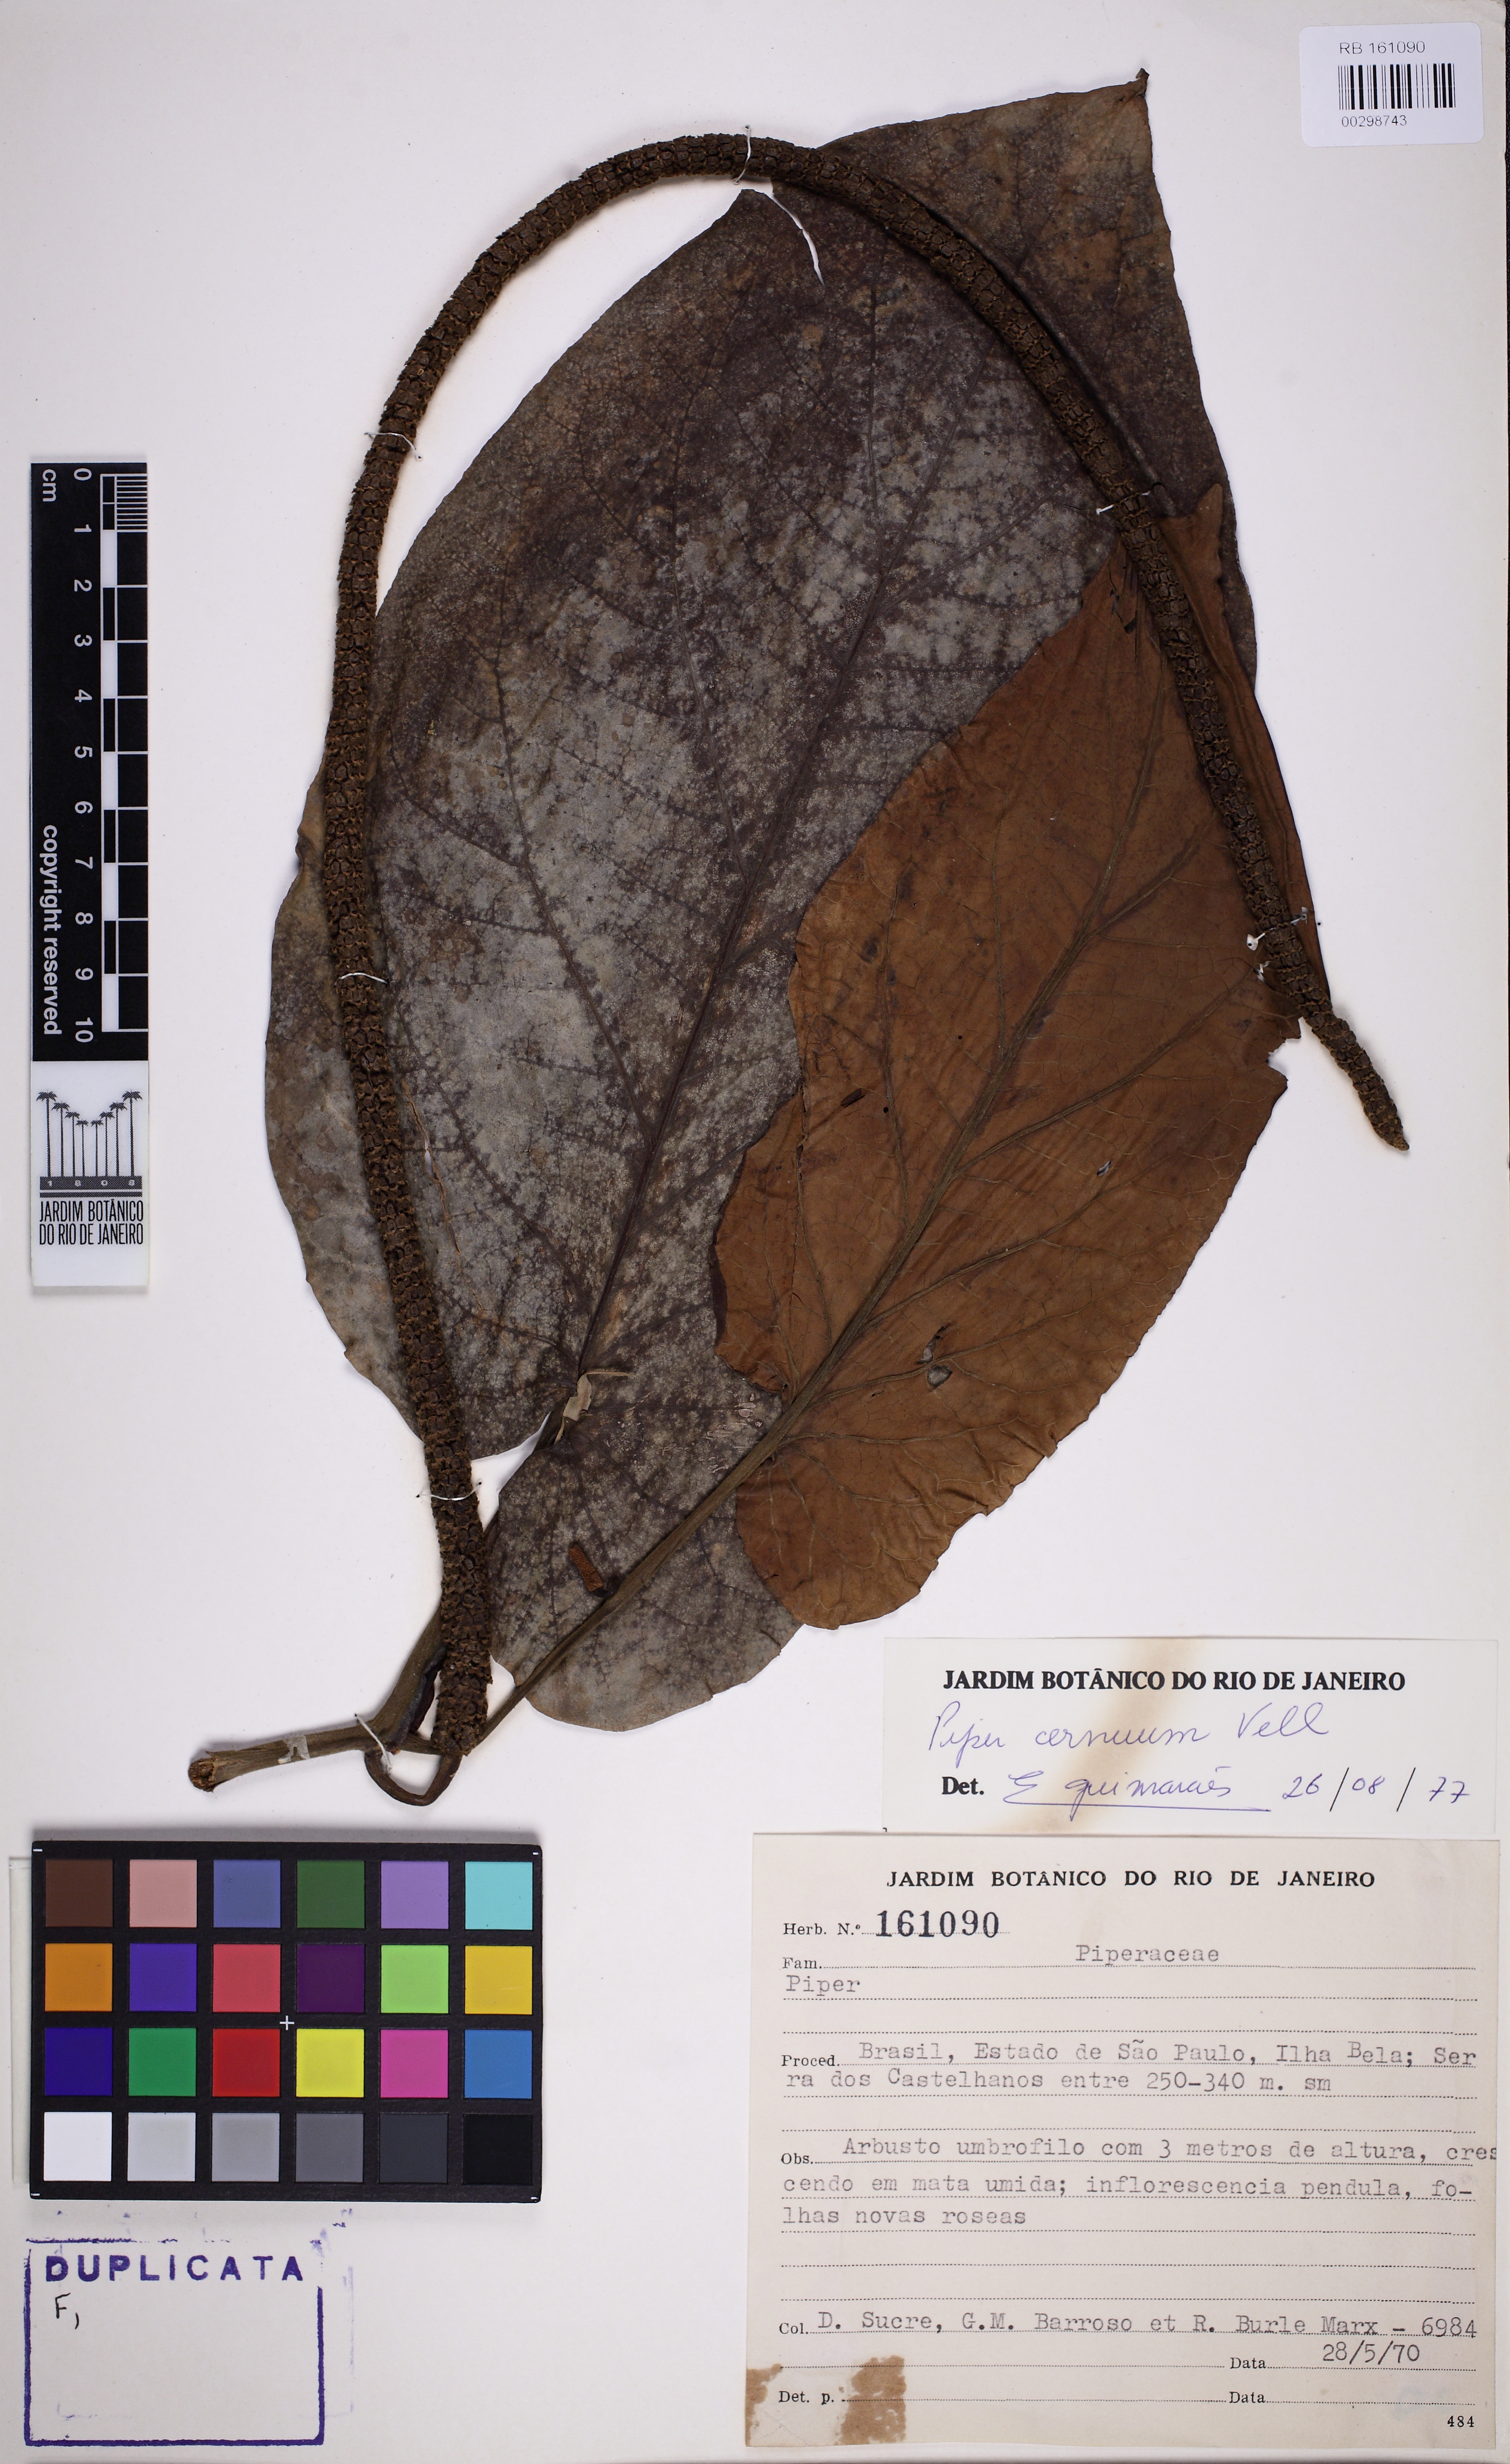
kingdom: Plantae
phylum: Tracheophyta
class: Magnoliopsida
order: Piperales
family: Piperaceae
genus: Piper
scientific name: Piper cernuum
